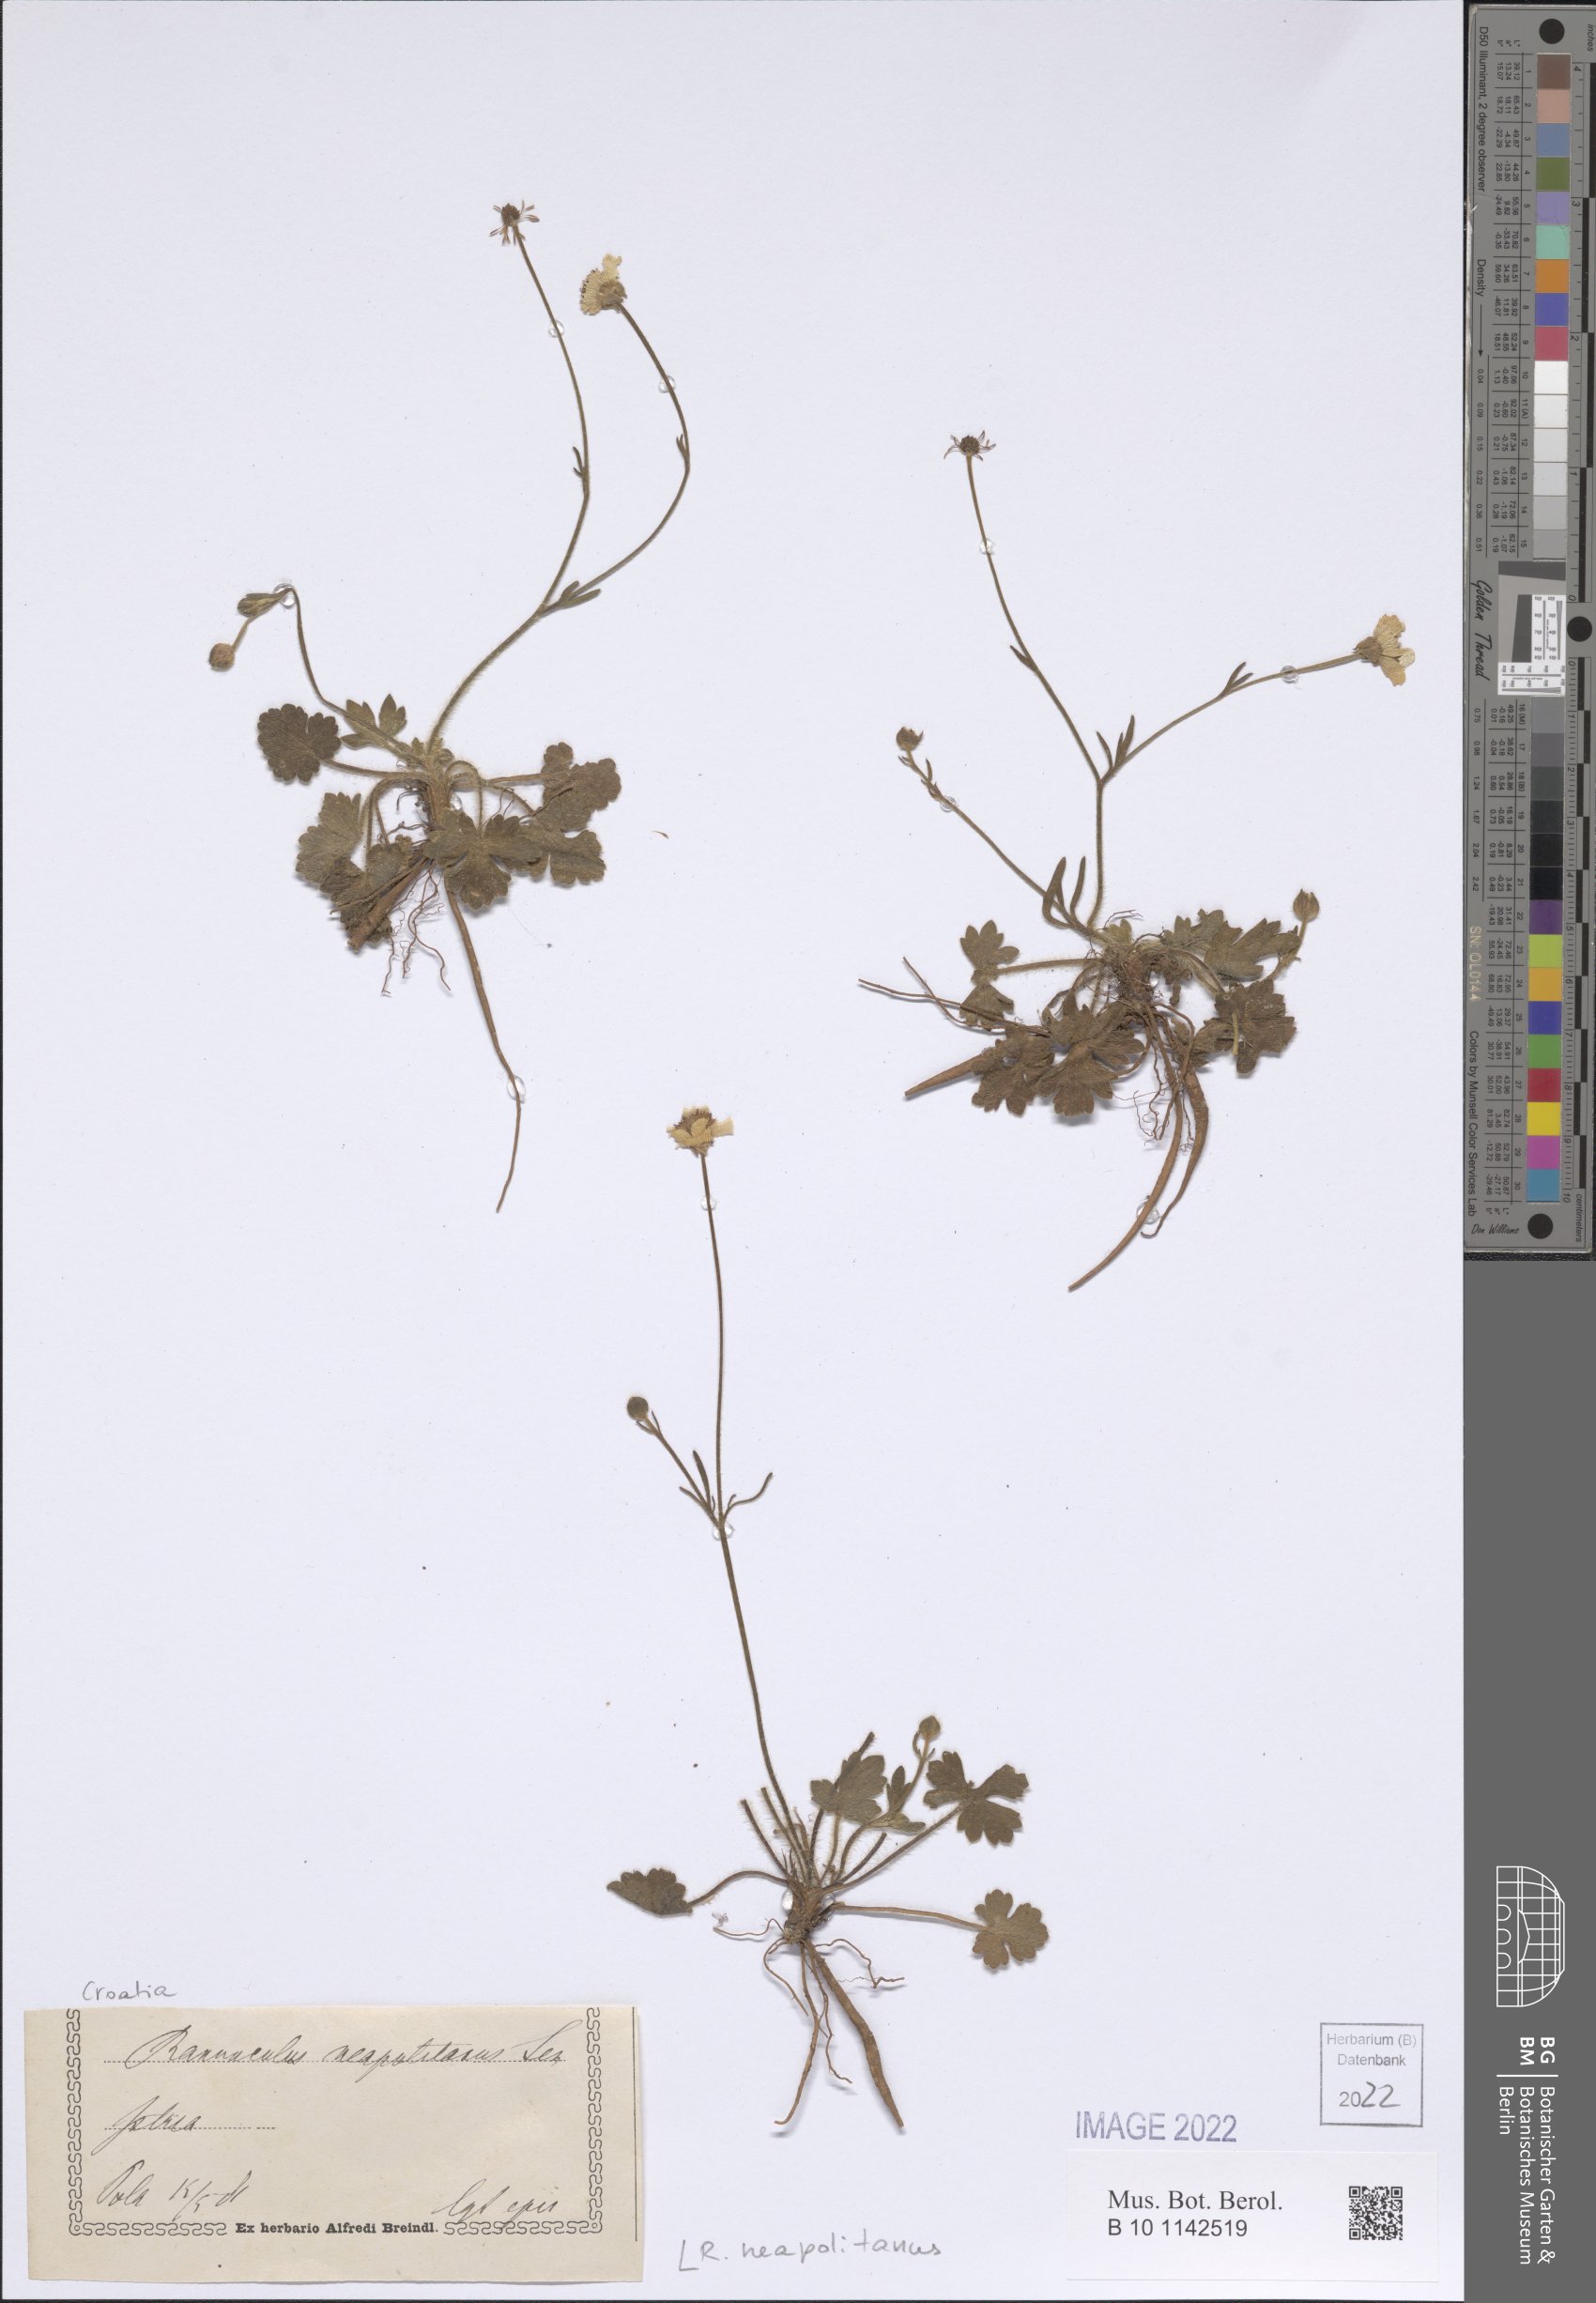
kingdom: Plantae
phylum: Tracheophyta
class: Magnoliopsida
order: Ranunculales
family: Ranunculaceae
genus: Ranunculus
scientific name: Ranunculus neapolitanus
